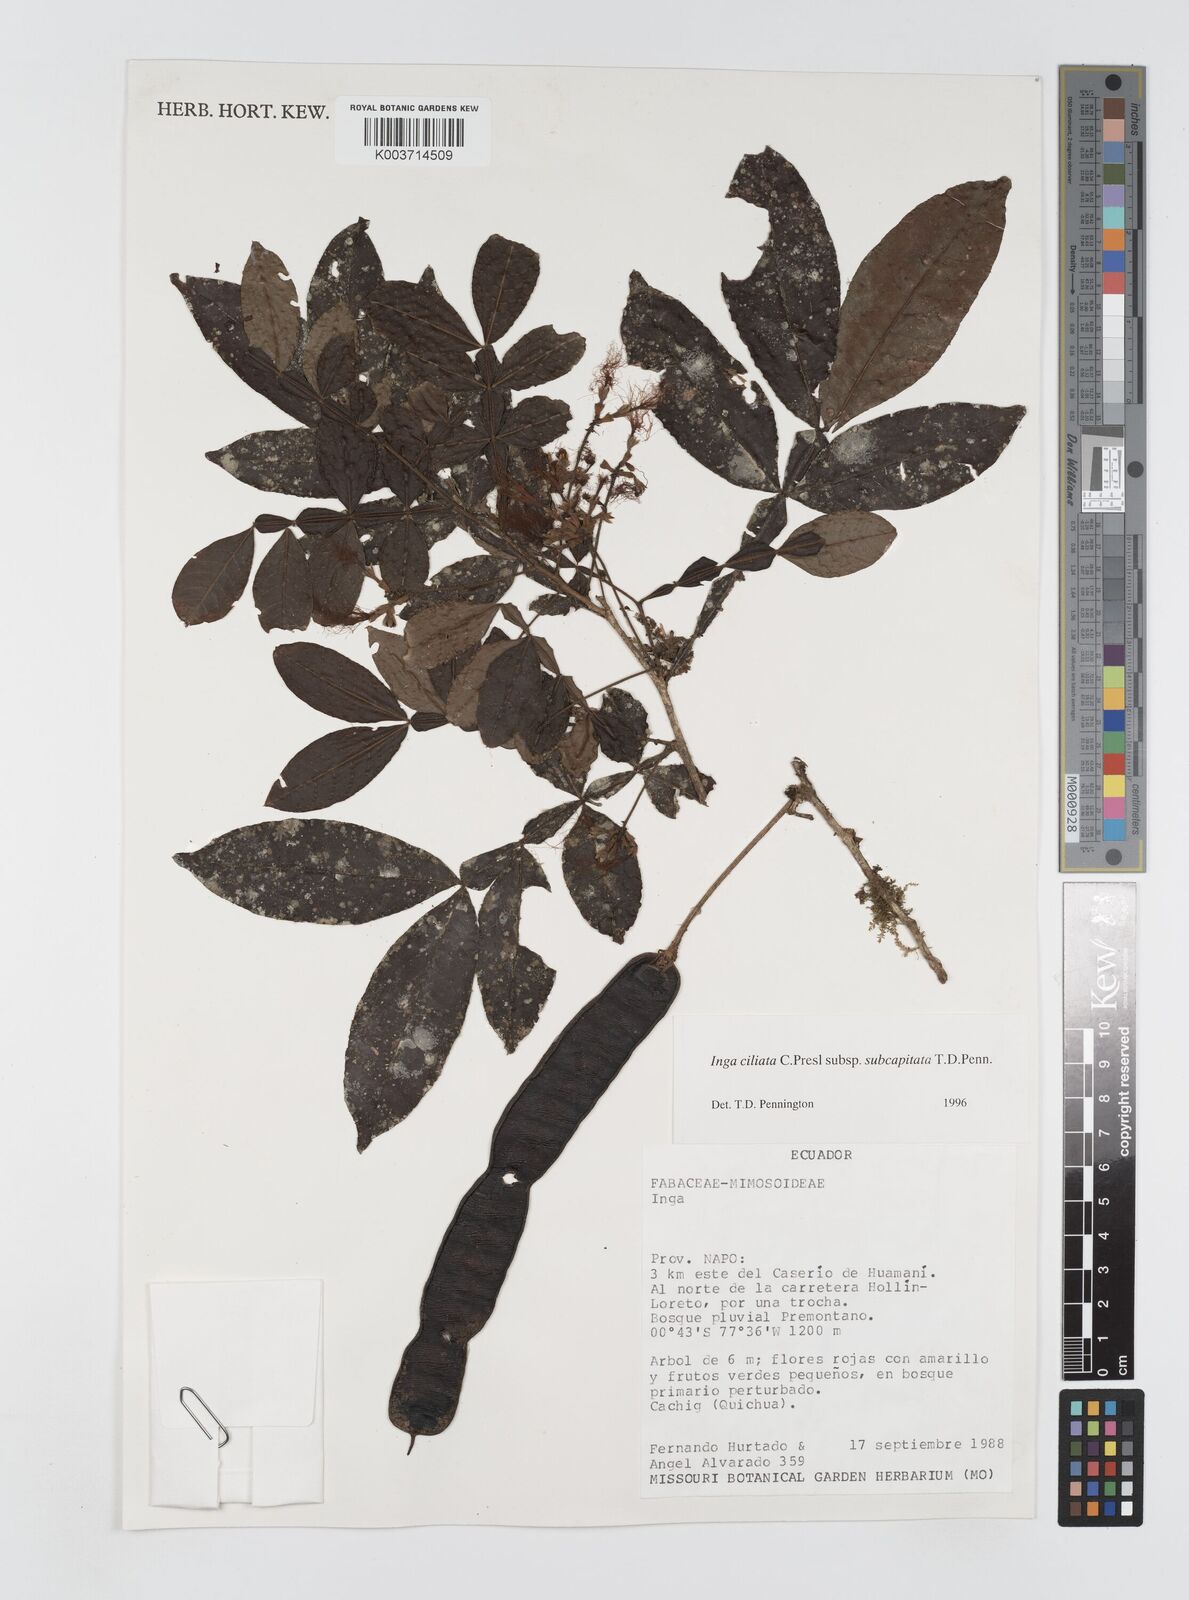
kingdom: Plantae
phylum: Tracheophyta
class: Magnoliopsida
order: Fabales
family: Fabaceae
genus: Inga
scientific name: Inga ciliata
